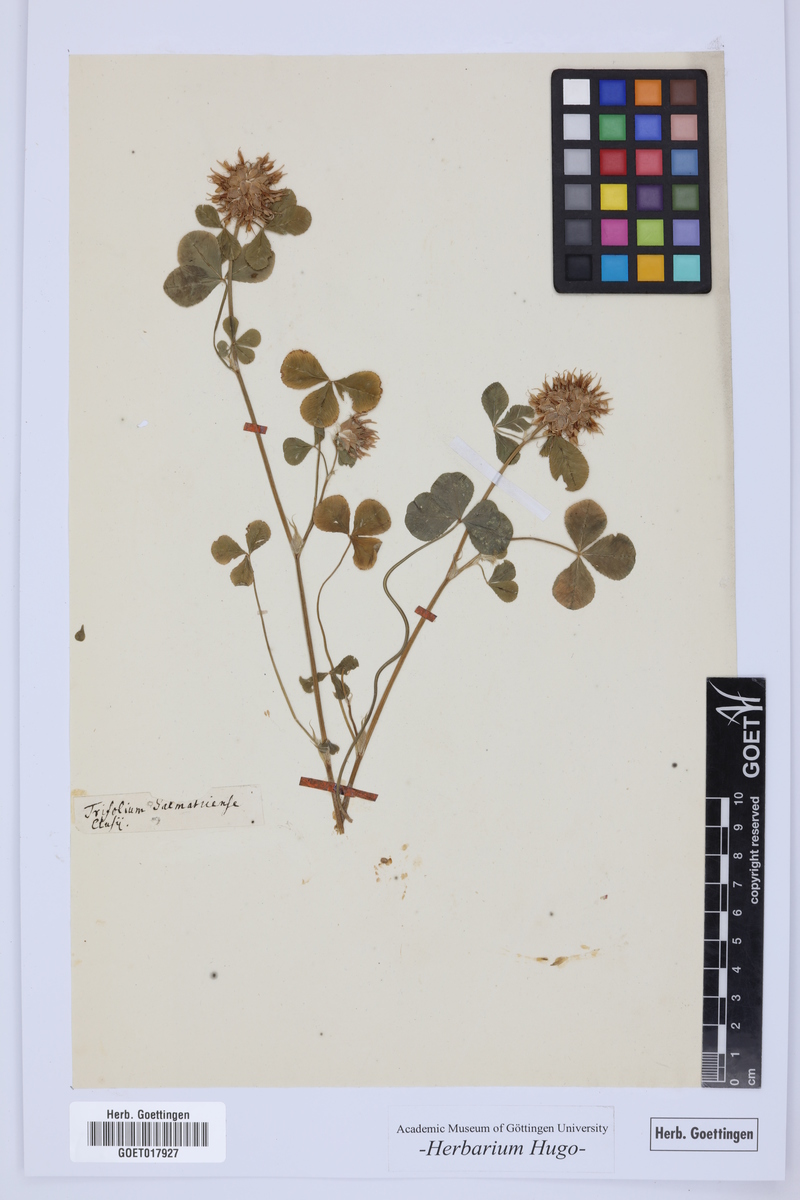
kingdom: Plantae
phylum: Tracheophyta
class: Magnoliopsida
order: Fabales
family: Fabaceae
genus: Trifolium
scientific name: Trifolium
